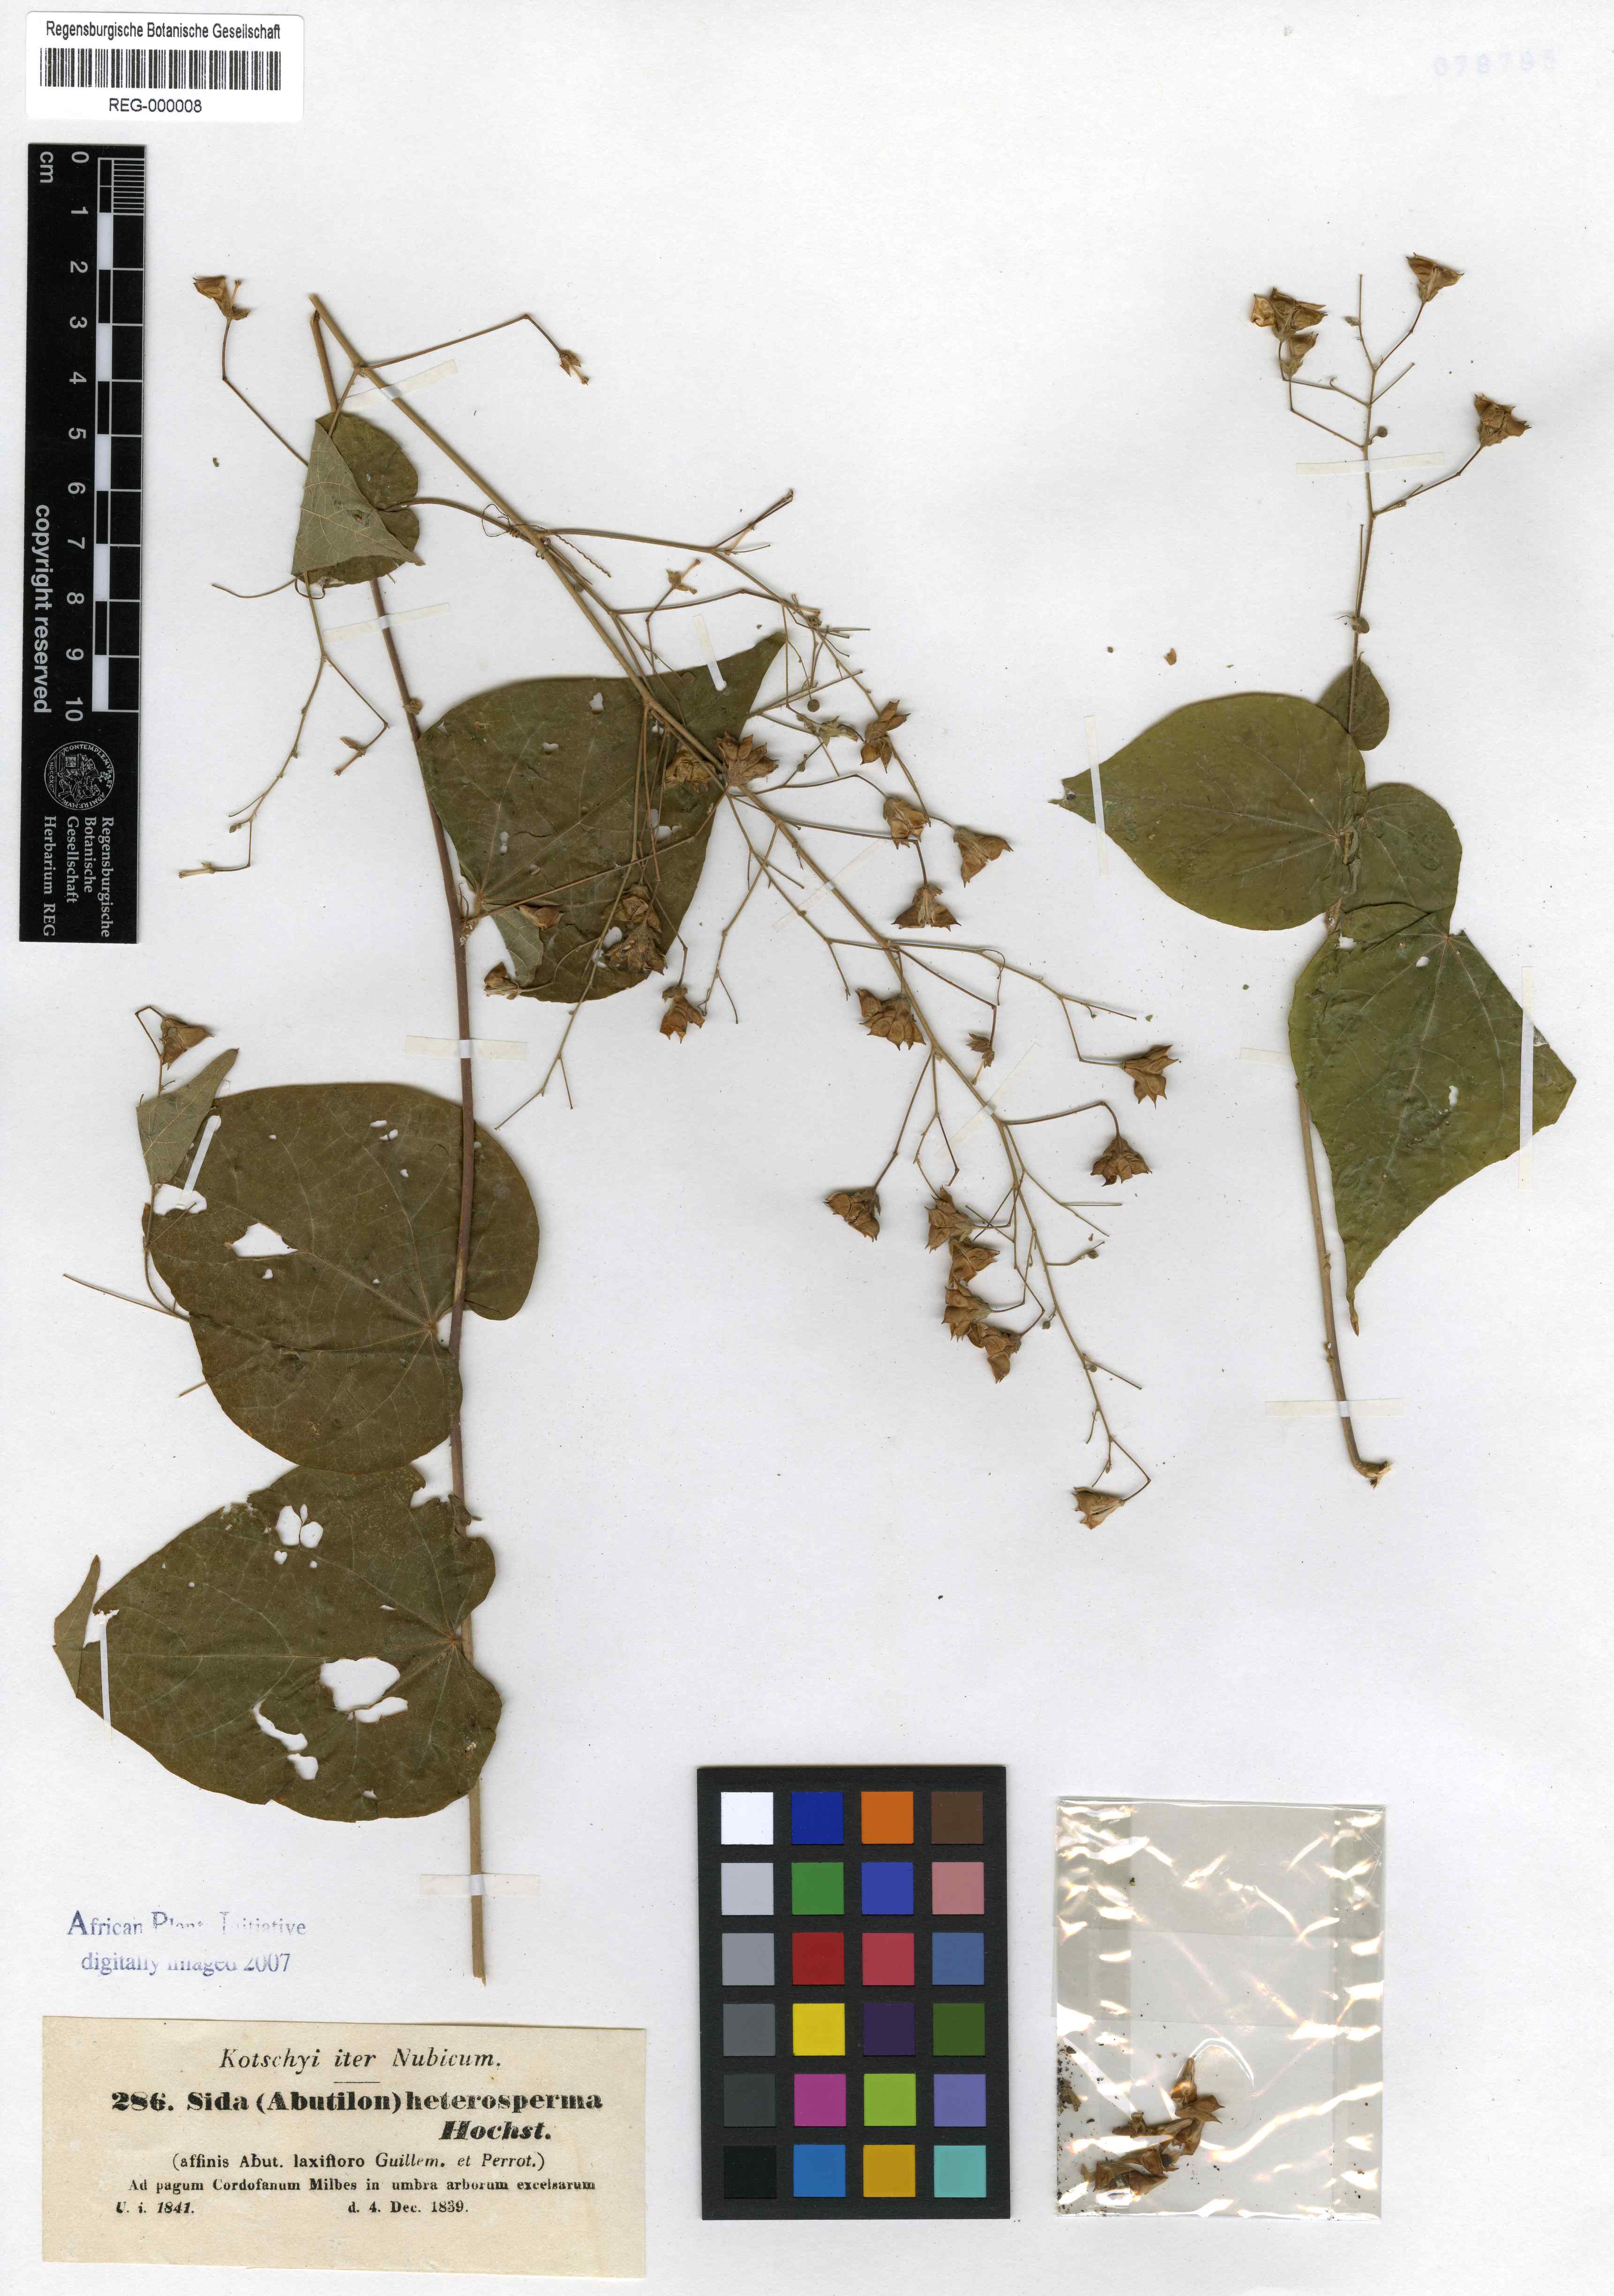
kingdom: Plantae
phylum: Tracheophyta
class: Magnoliopsida
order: Malvales
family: Malvaceae
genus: Wissadula
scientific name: Wissadula amplissima
